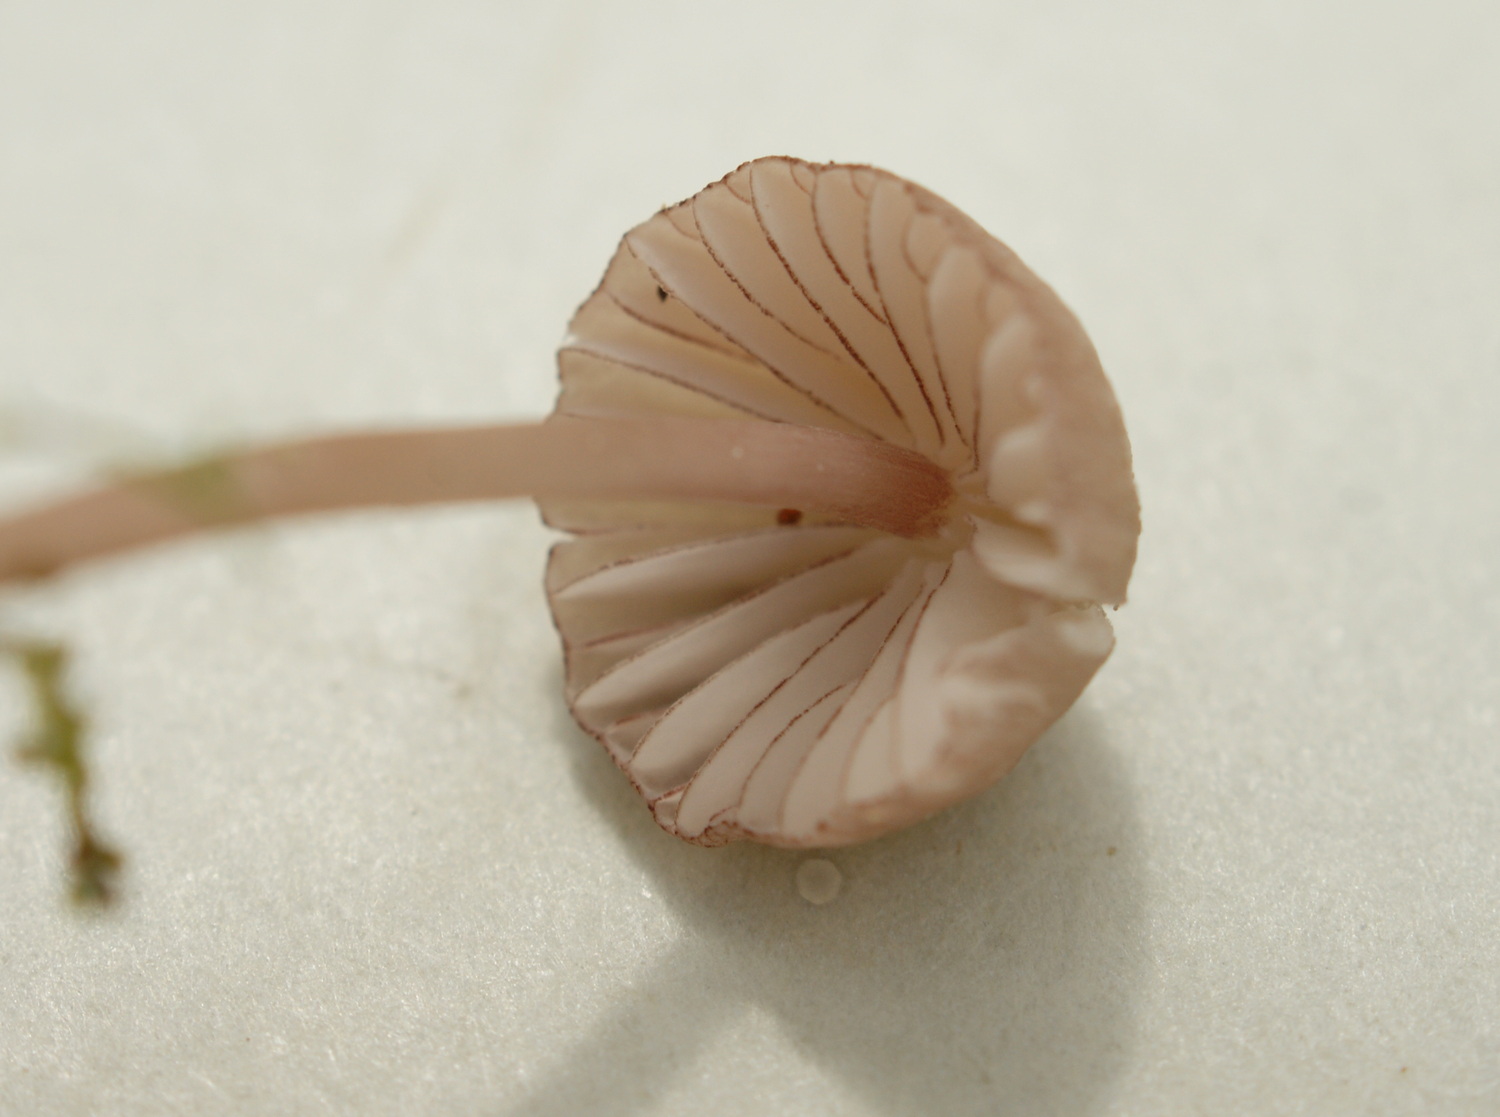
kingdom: Fungi
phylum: Basidiomycota
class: Agaricomycetes
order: Agaricales
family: Mycenaceae
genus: Mycena
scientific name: Mycena sanguinolenta
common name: rødmælket huesvamp
